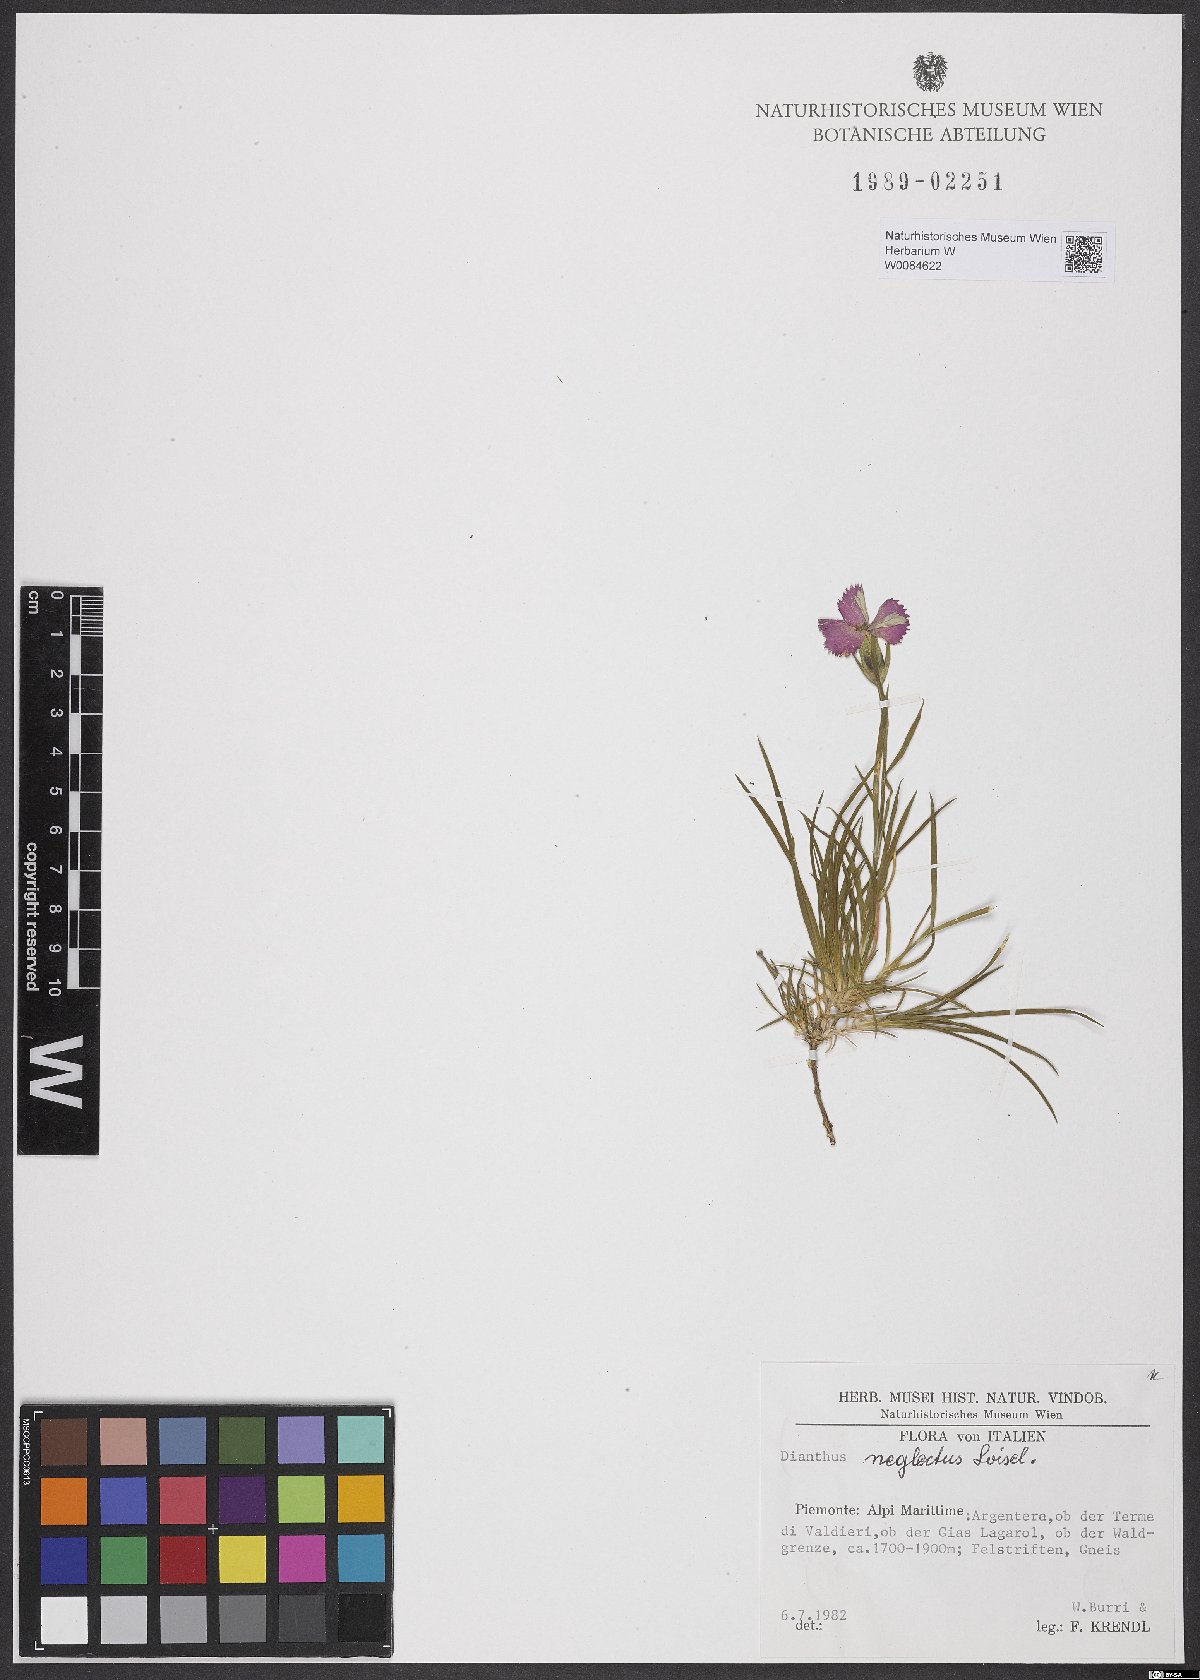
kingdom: Plantae
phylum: Tracheophyta
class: Magnoliopsida
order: Caryophyllales
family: Caryophyllaceae
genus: Dianthus
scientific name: Dianthus seguieri
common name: Ragged pink
